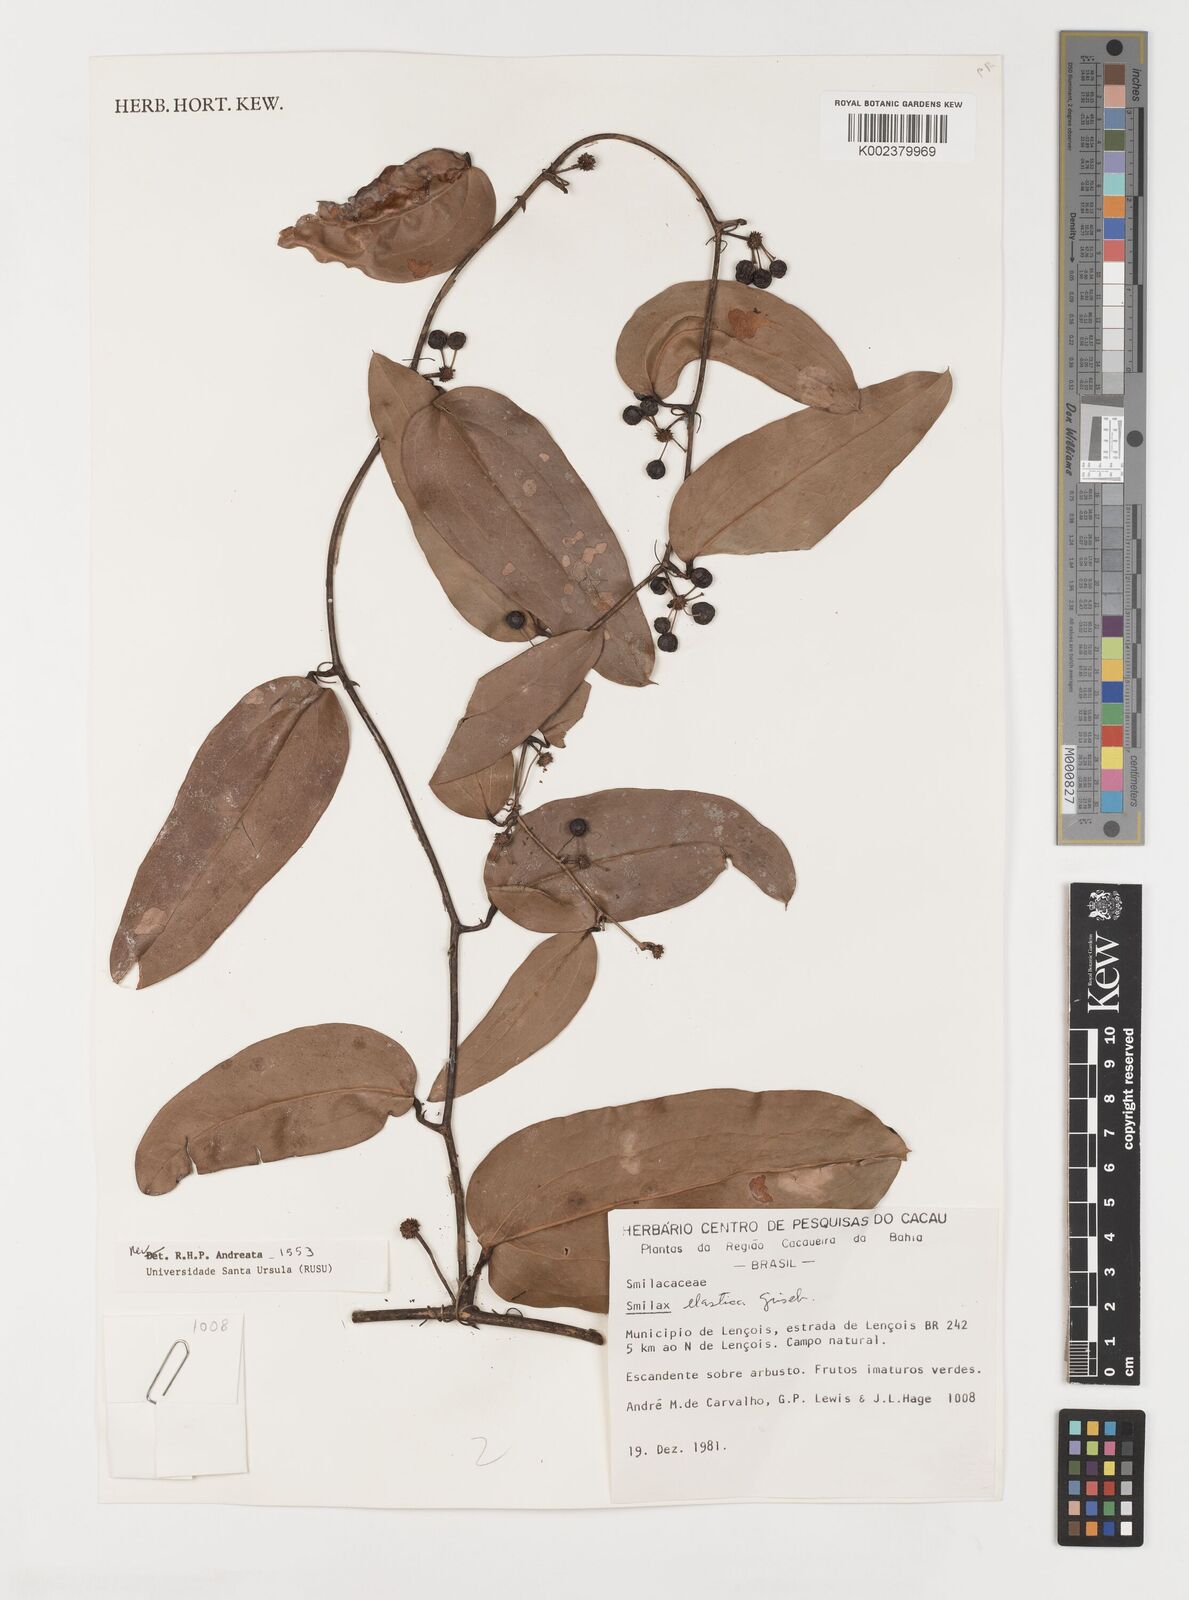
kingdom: Plantae
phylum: Tracheophyta
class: Liliopsida
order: Liliales
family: Smilacaceae
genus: Smilax
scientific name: Smilax elastica
